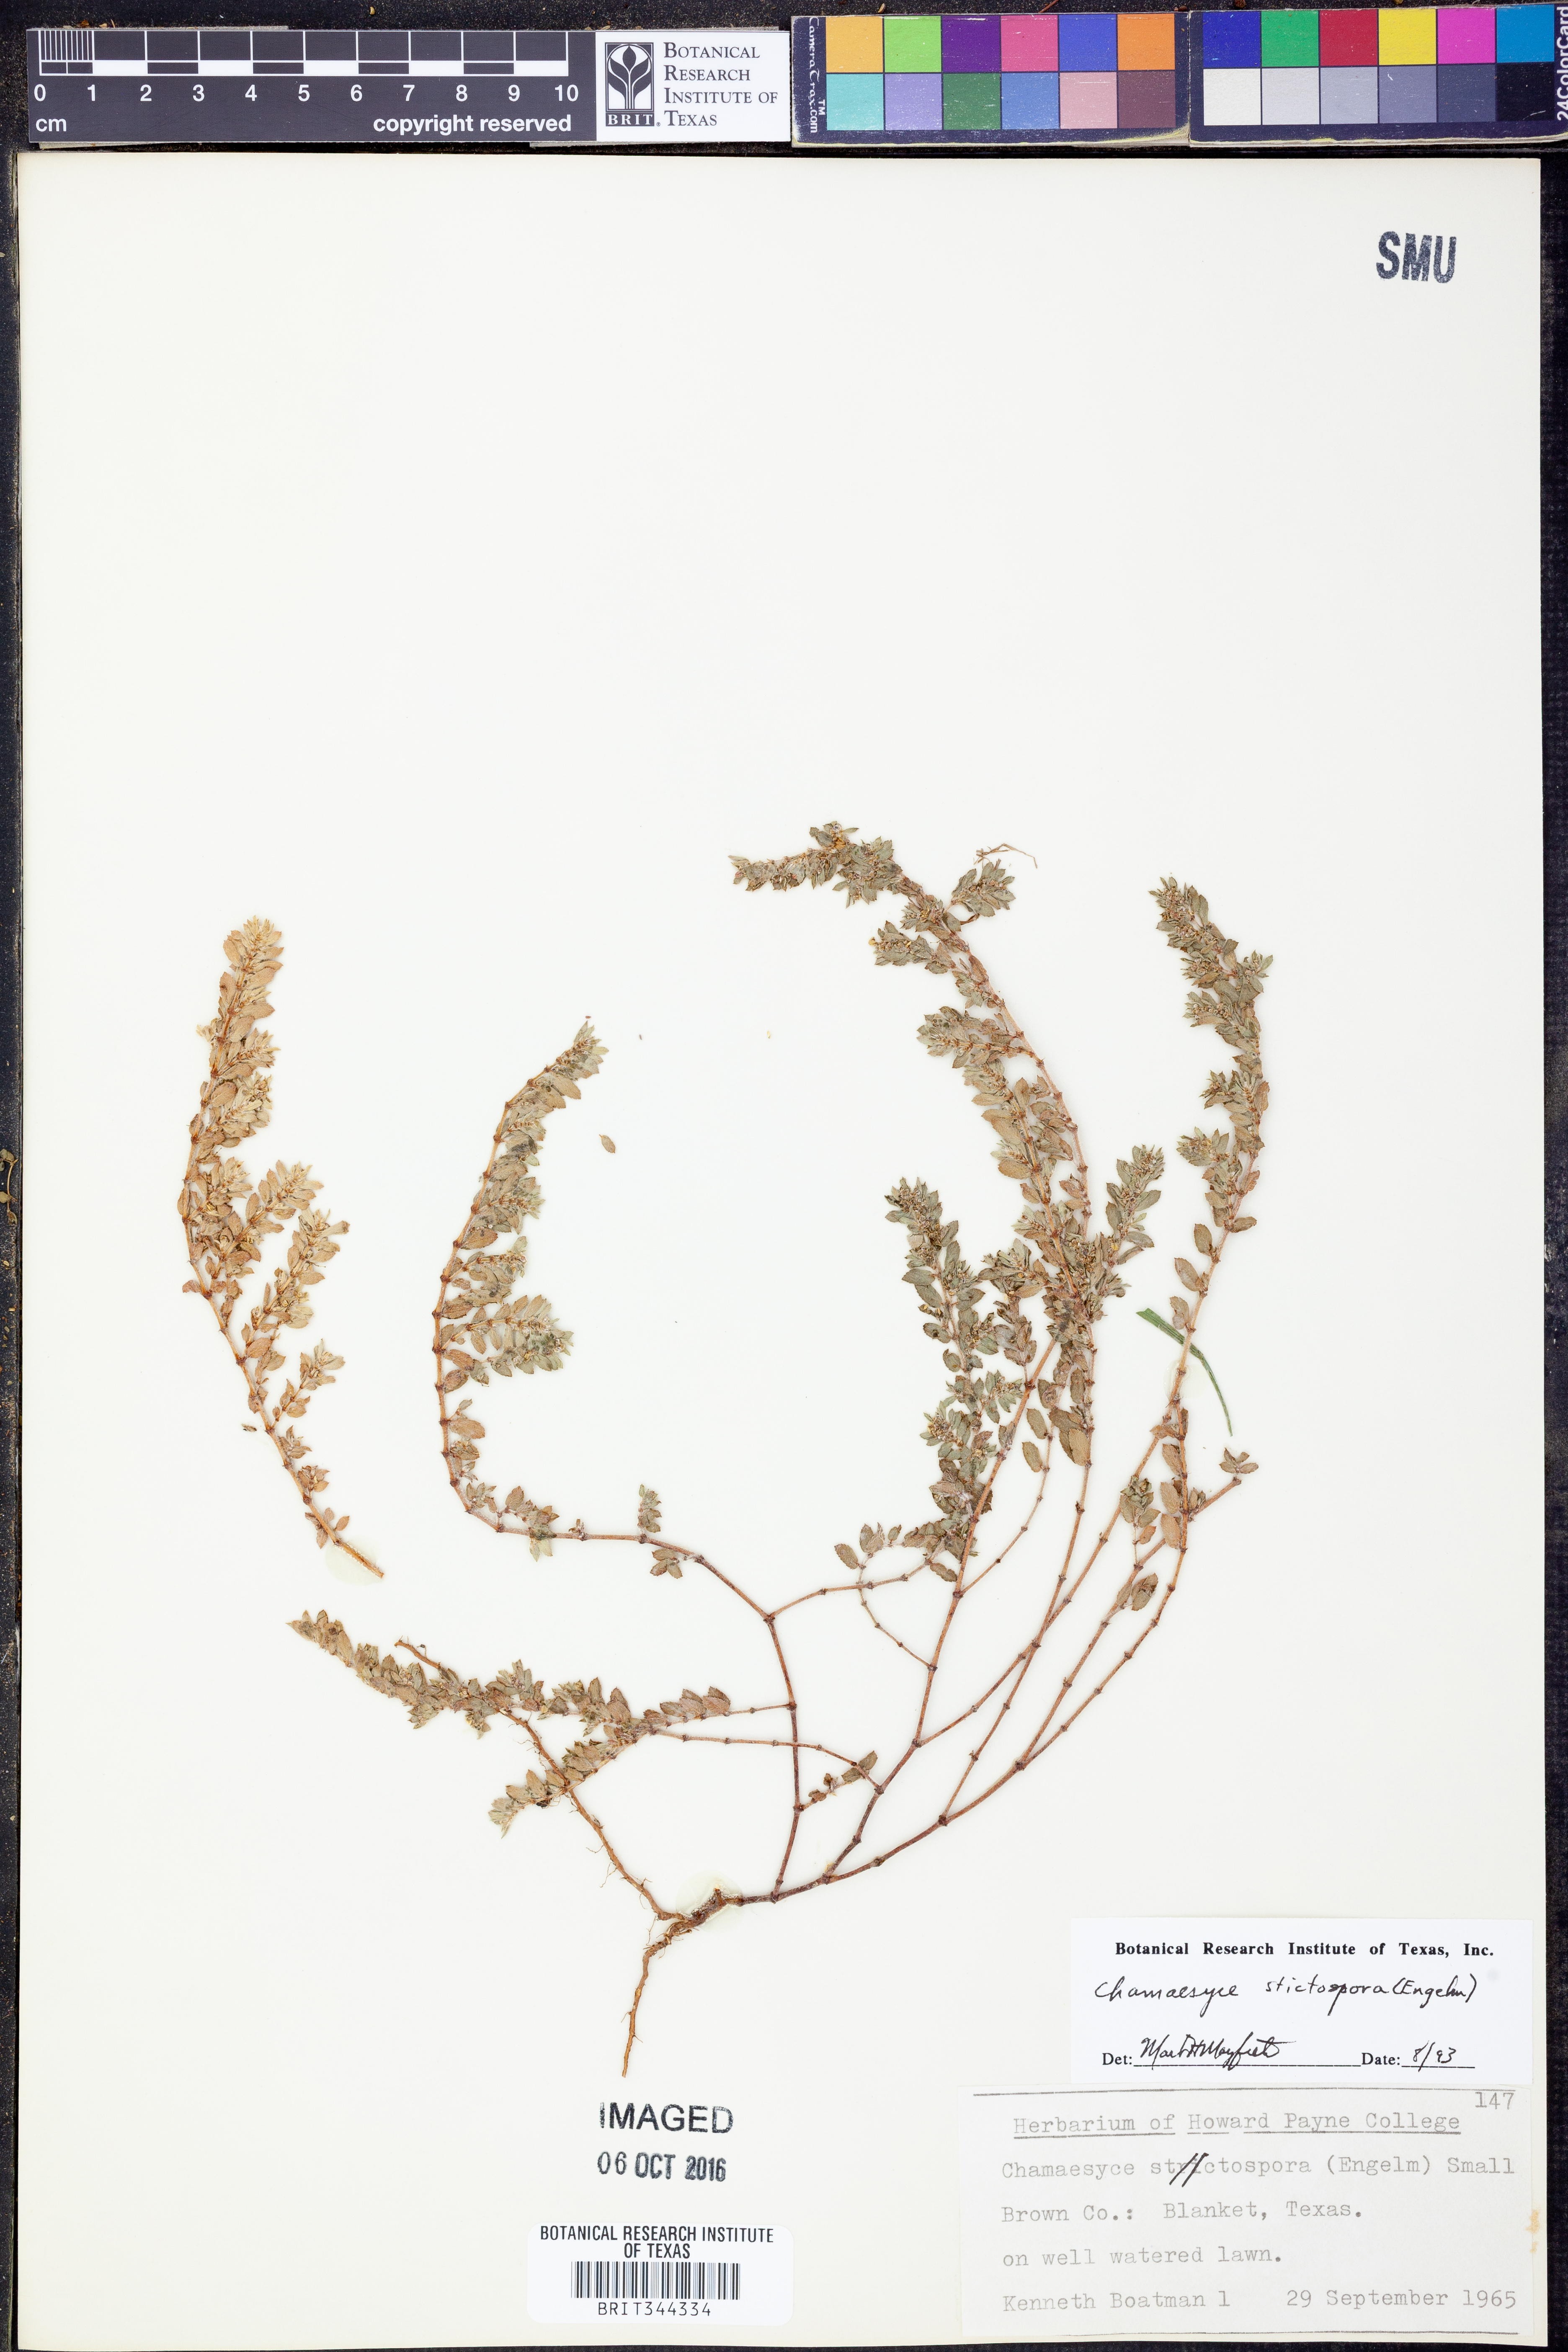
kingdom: Plantae
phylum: Tracheophyta
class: Magnoliopsida
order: Malpighiales
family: Euphorbiaceae
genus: Euphorbia
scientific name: Euphorbia stictospora
